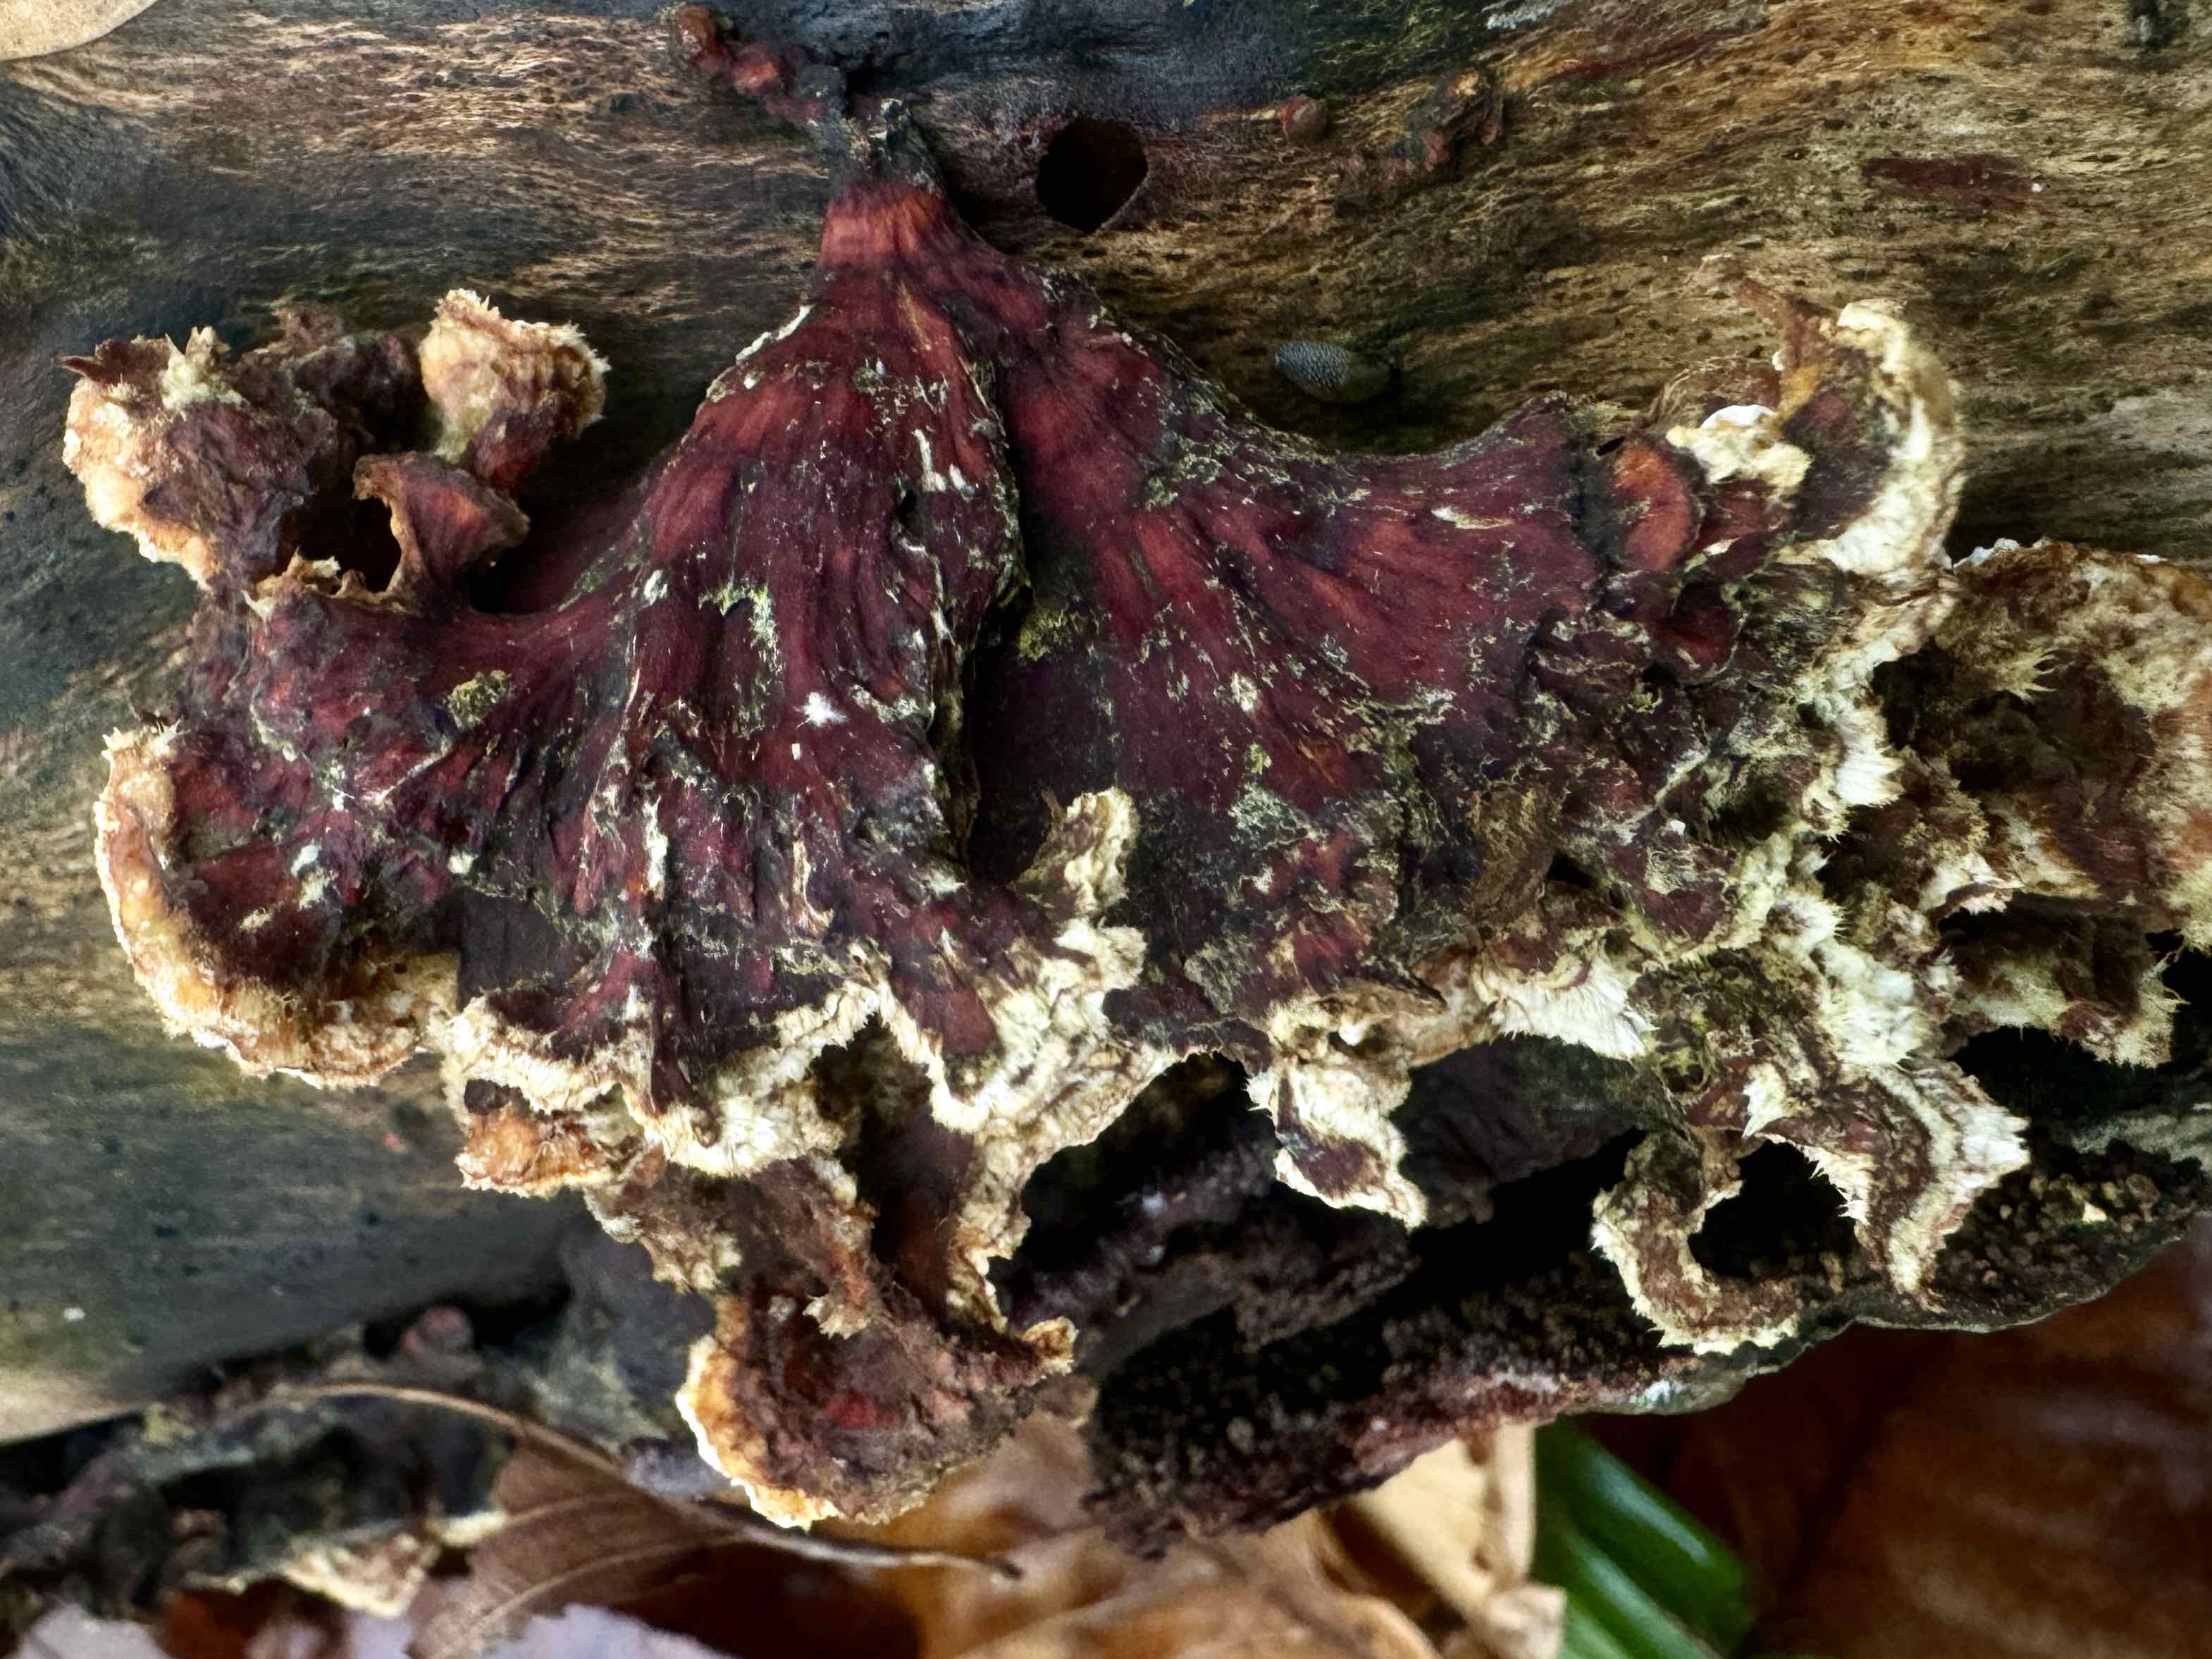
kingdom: Fungi
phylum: Basidiomycota
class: Agaricomycetes
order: Russulales
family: Stereaceae
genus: Stereum
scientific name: Stereum subtomentosum
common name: smuk lædersvamp
